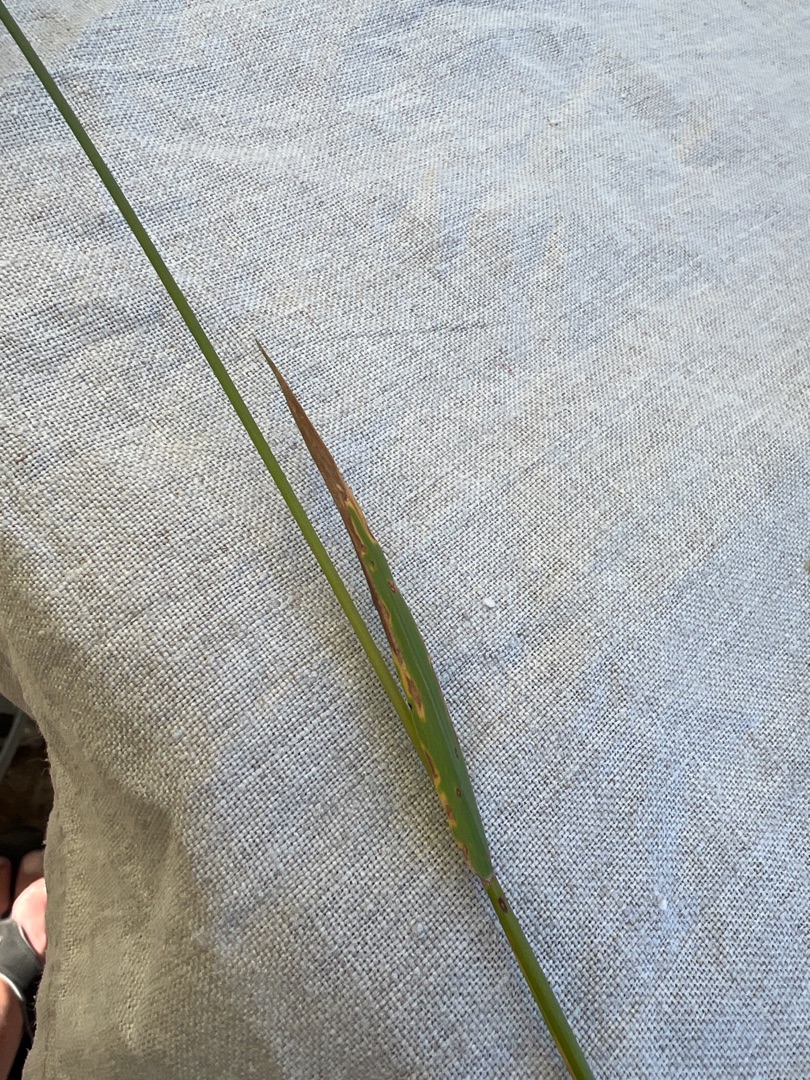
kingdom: Plantae
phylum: Tracheophyta
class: Liliopsida
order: Poales
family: Poaceae
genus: Phleum
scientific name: Phleum pratense
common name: Eng-rottehale
